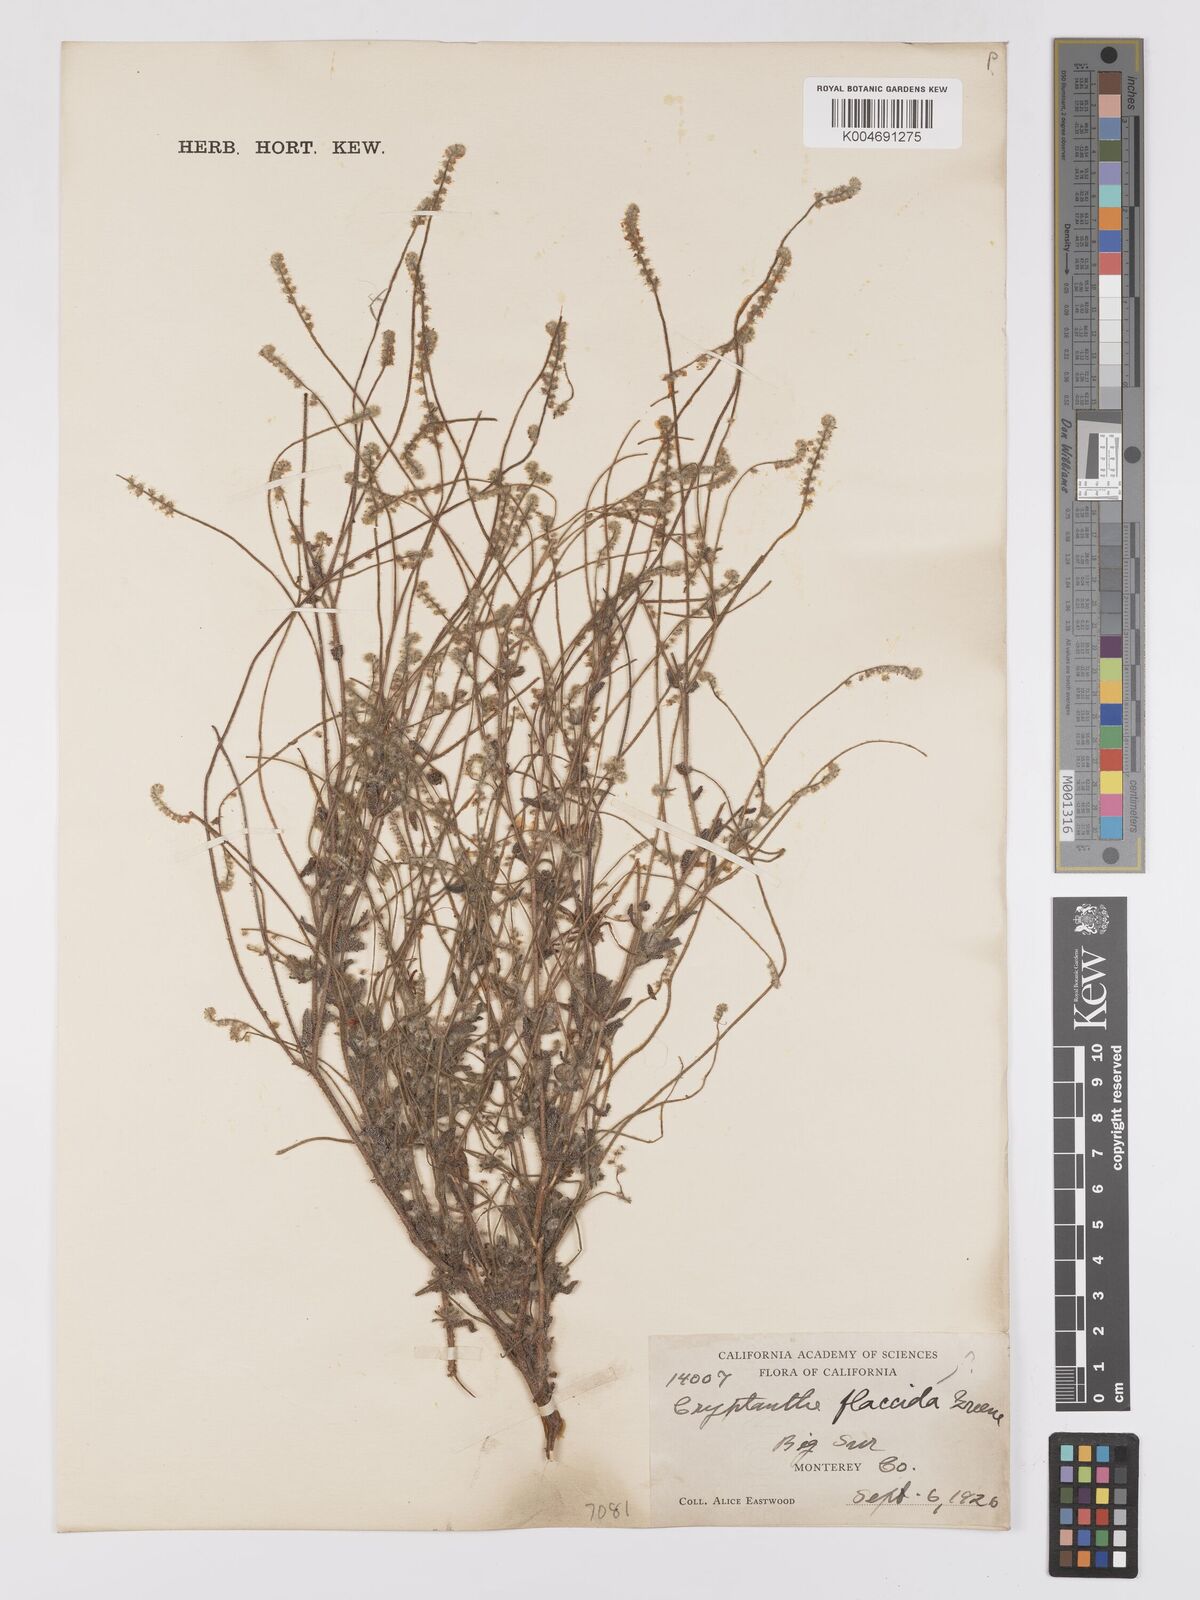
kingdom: Plantae
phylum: Tracheophyta
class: Magnoliopsida
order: Boraginales
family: Boraginaceae
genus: Cryptantha
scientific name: Cryptantha flaccida
